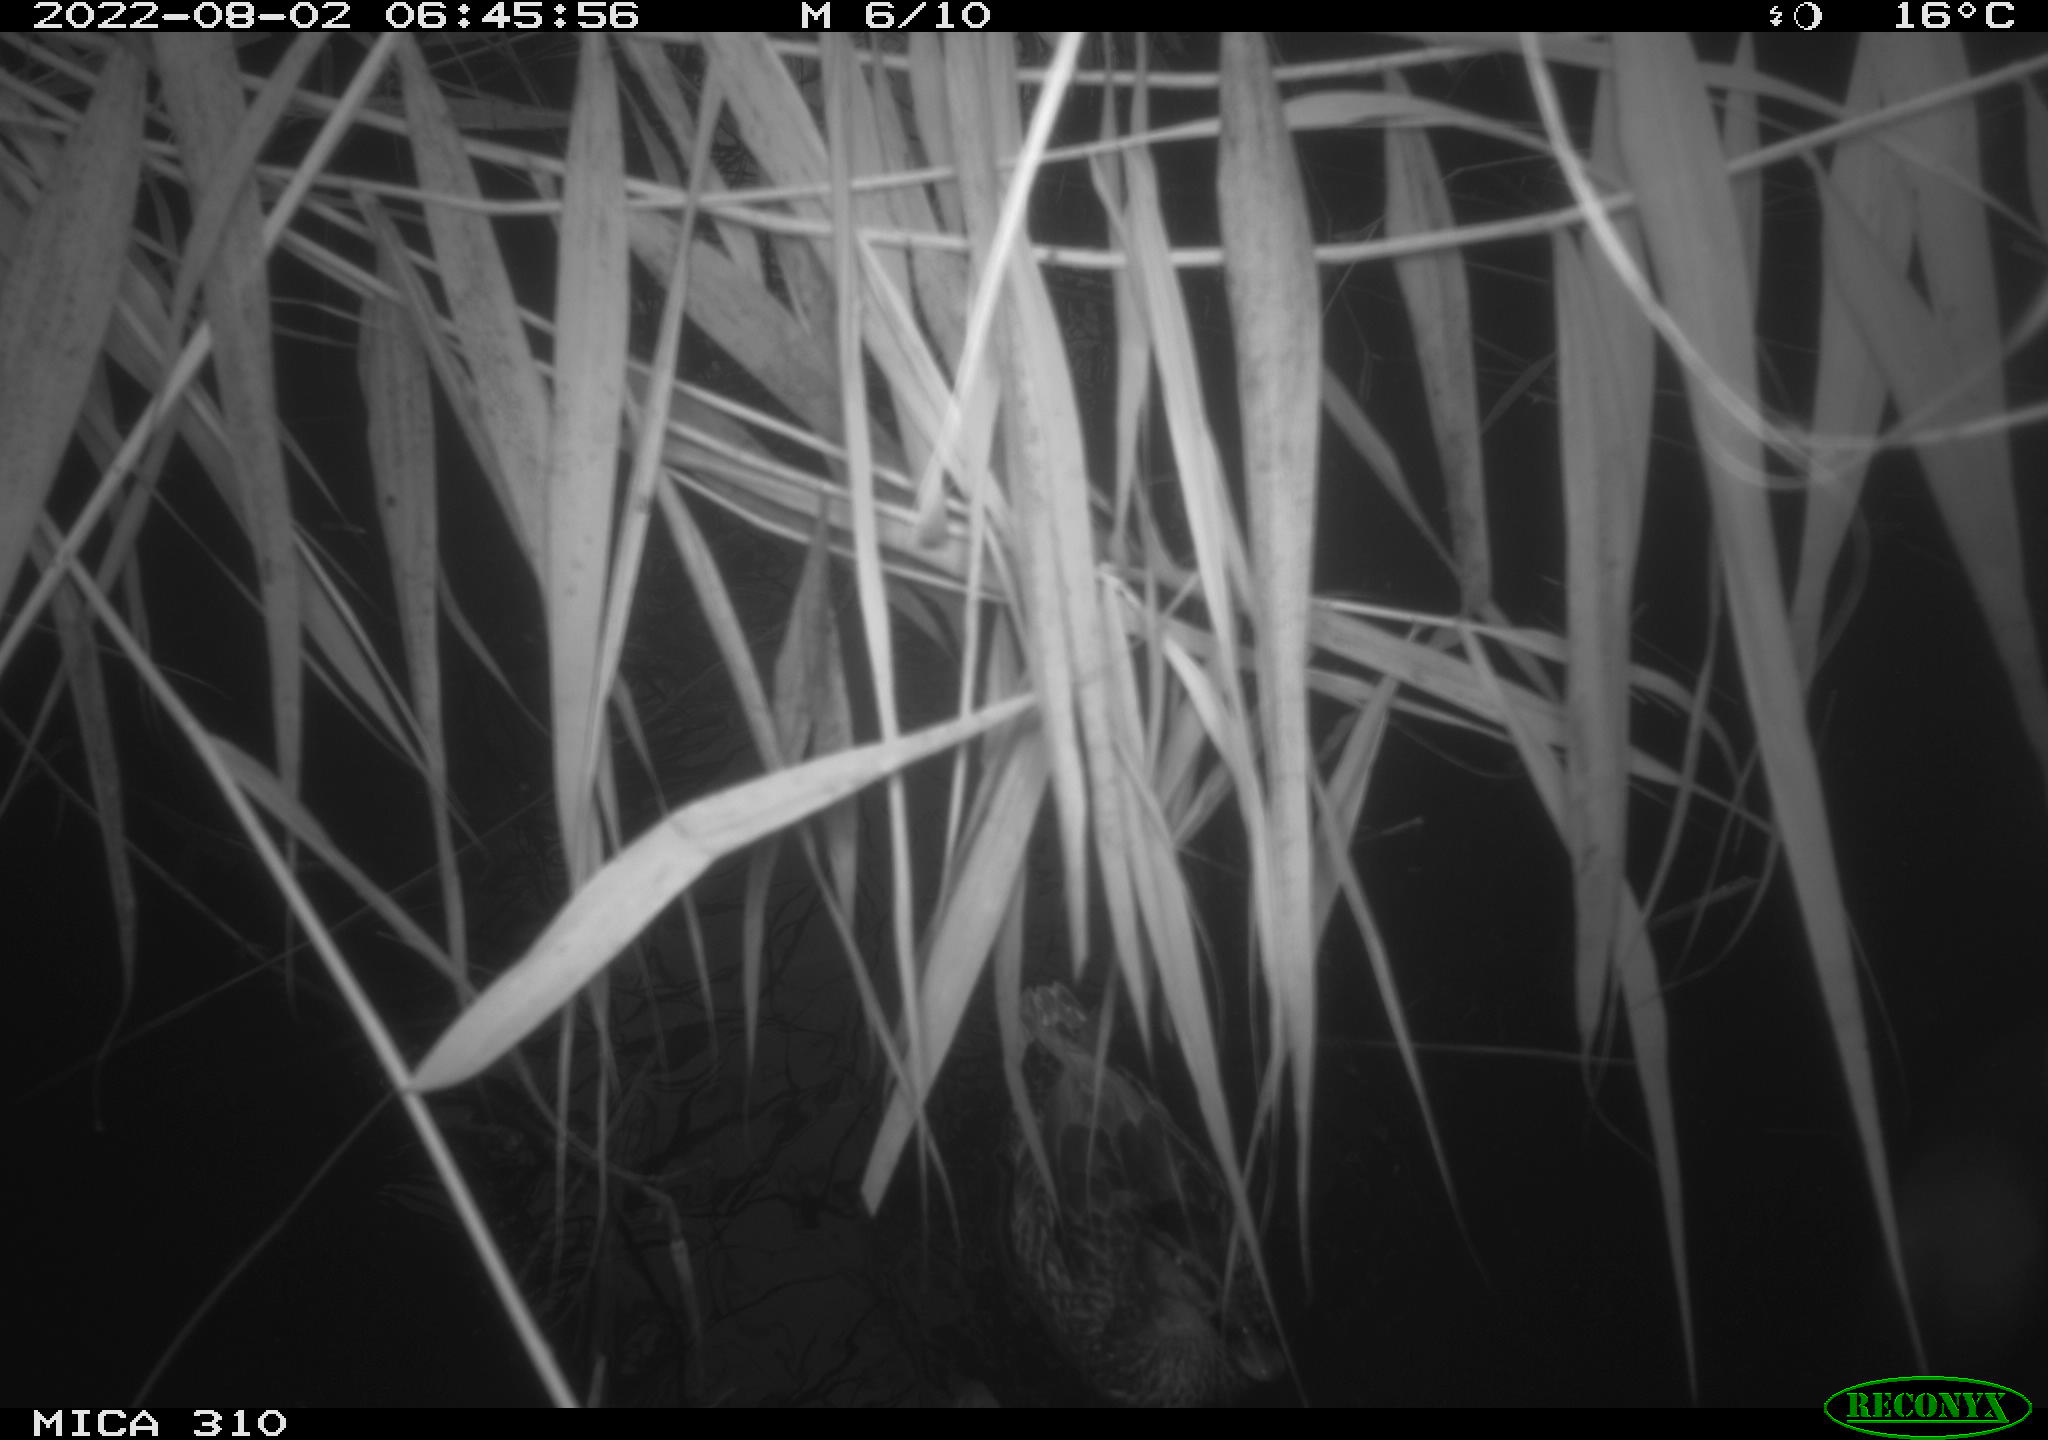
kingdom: Animalia
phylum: Chordata
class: Aves
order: Anseriformes
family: Anatidae
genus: Anas
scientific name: Anas platyrhynchos
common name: Mallard
